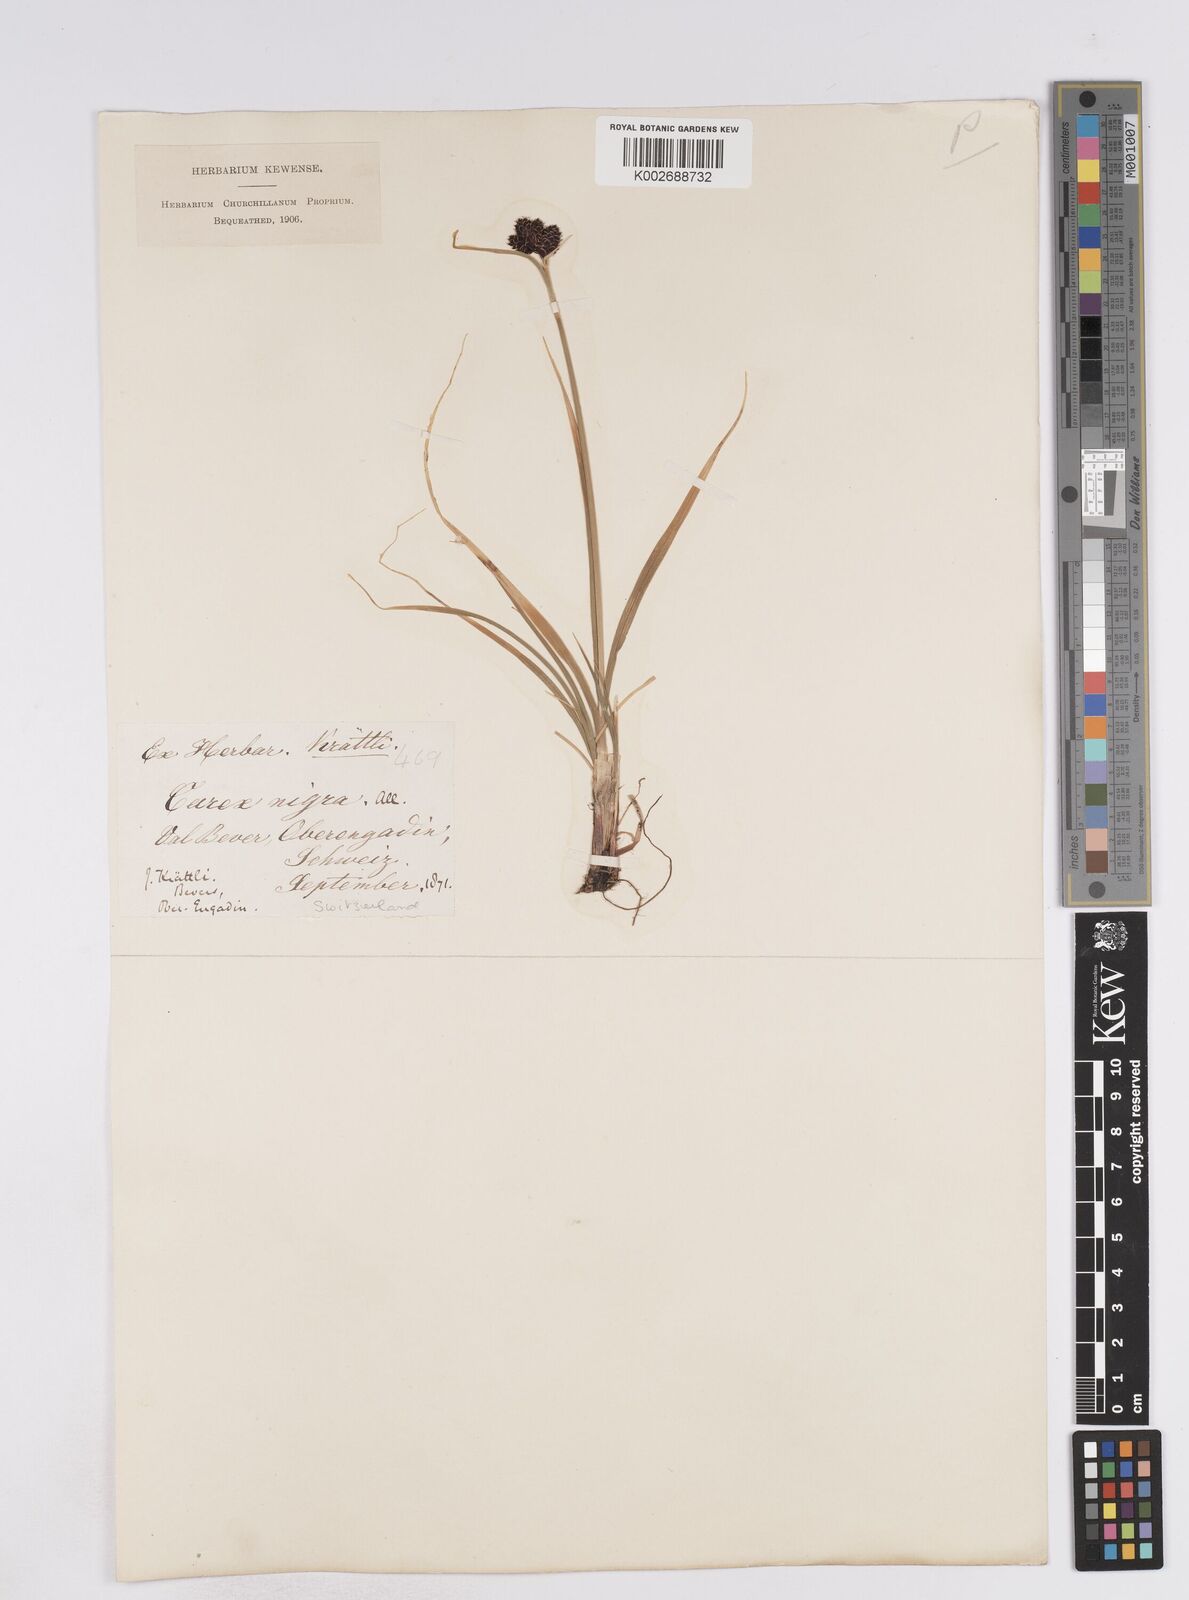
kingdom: Plantae
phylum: Tracheophyta
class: Liliopsida
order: Poales
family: Cyperaceae
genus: Carex
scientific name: Carex parviflora
